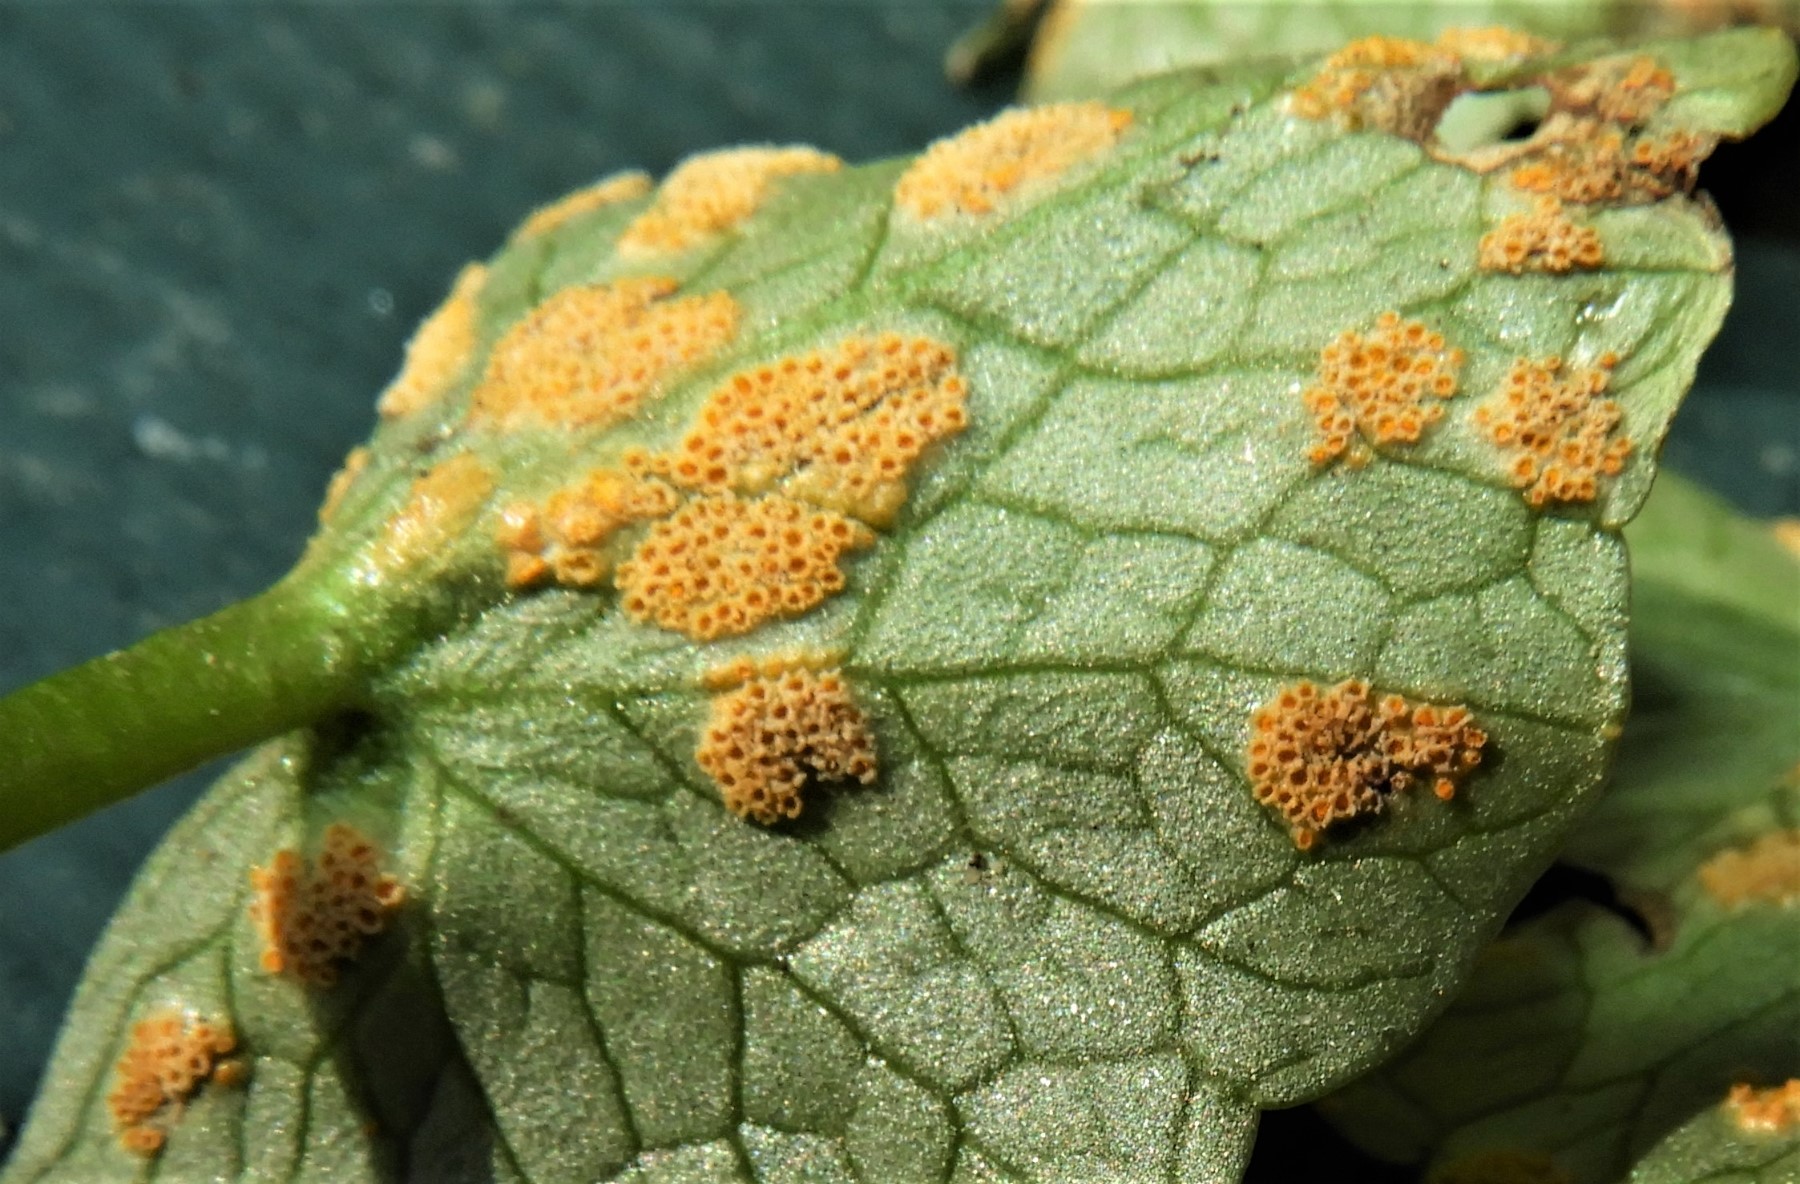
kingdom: Fungi
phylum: Basidiomycota
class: Pucciniomycetes
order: Pucciniales
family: Pucciniaceae
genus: Uromyces
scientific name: Uromyces dactylidis
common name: ranunkel-encellerust
